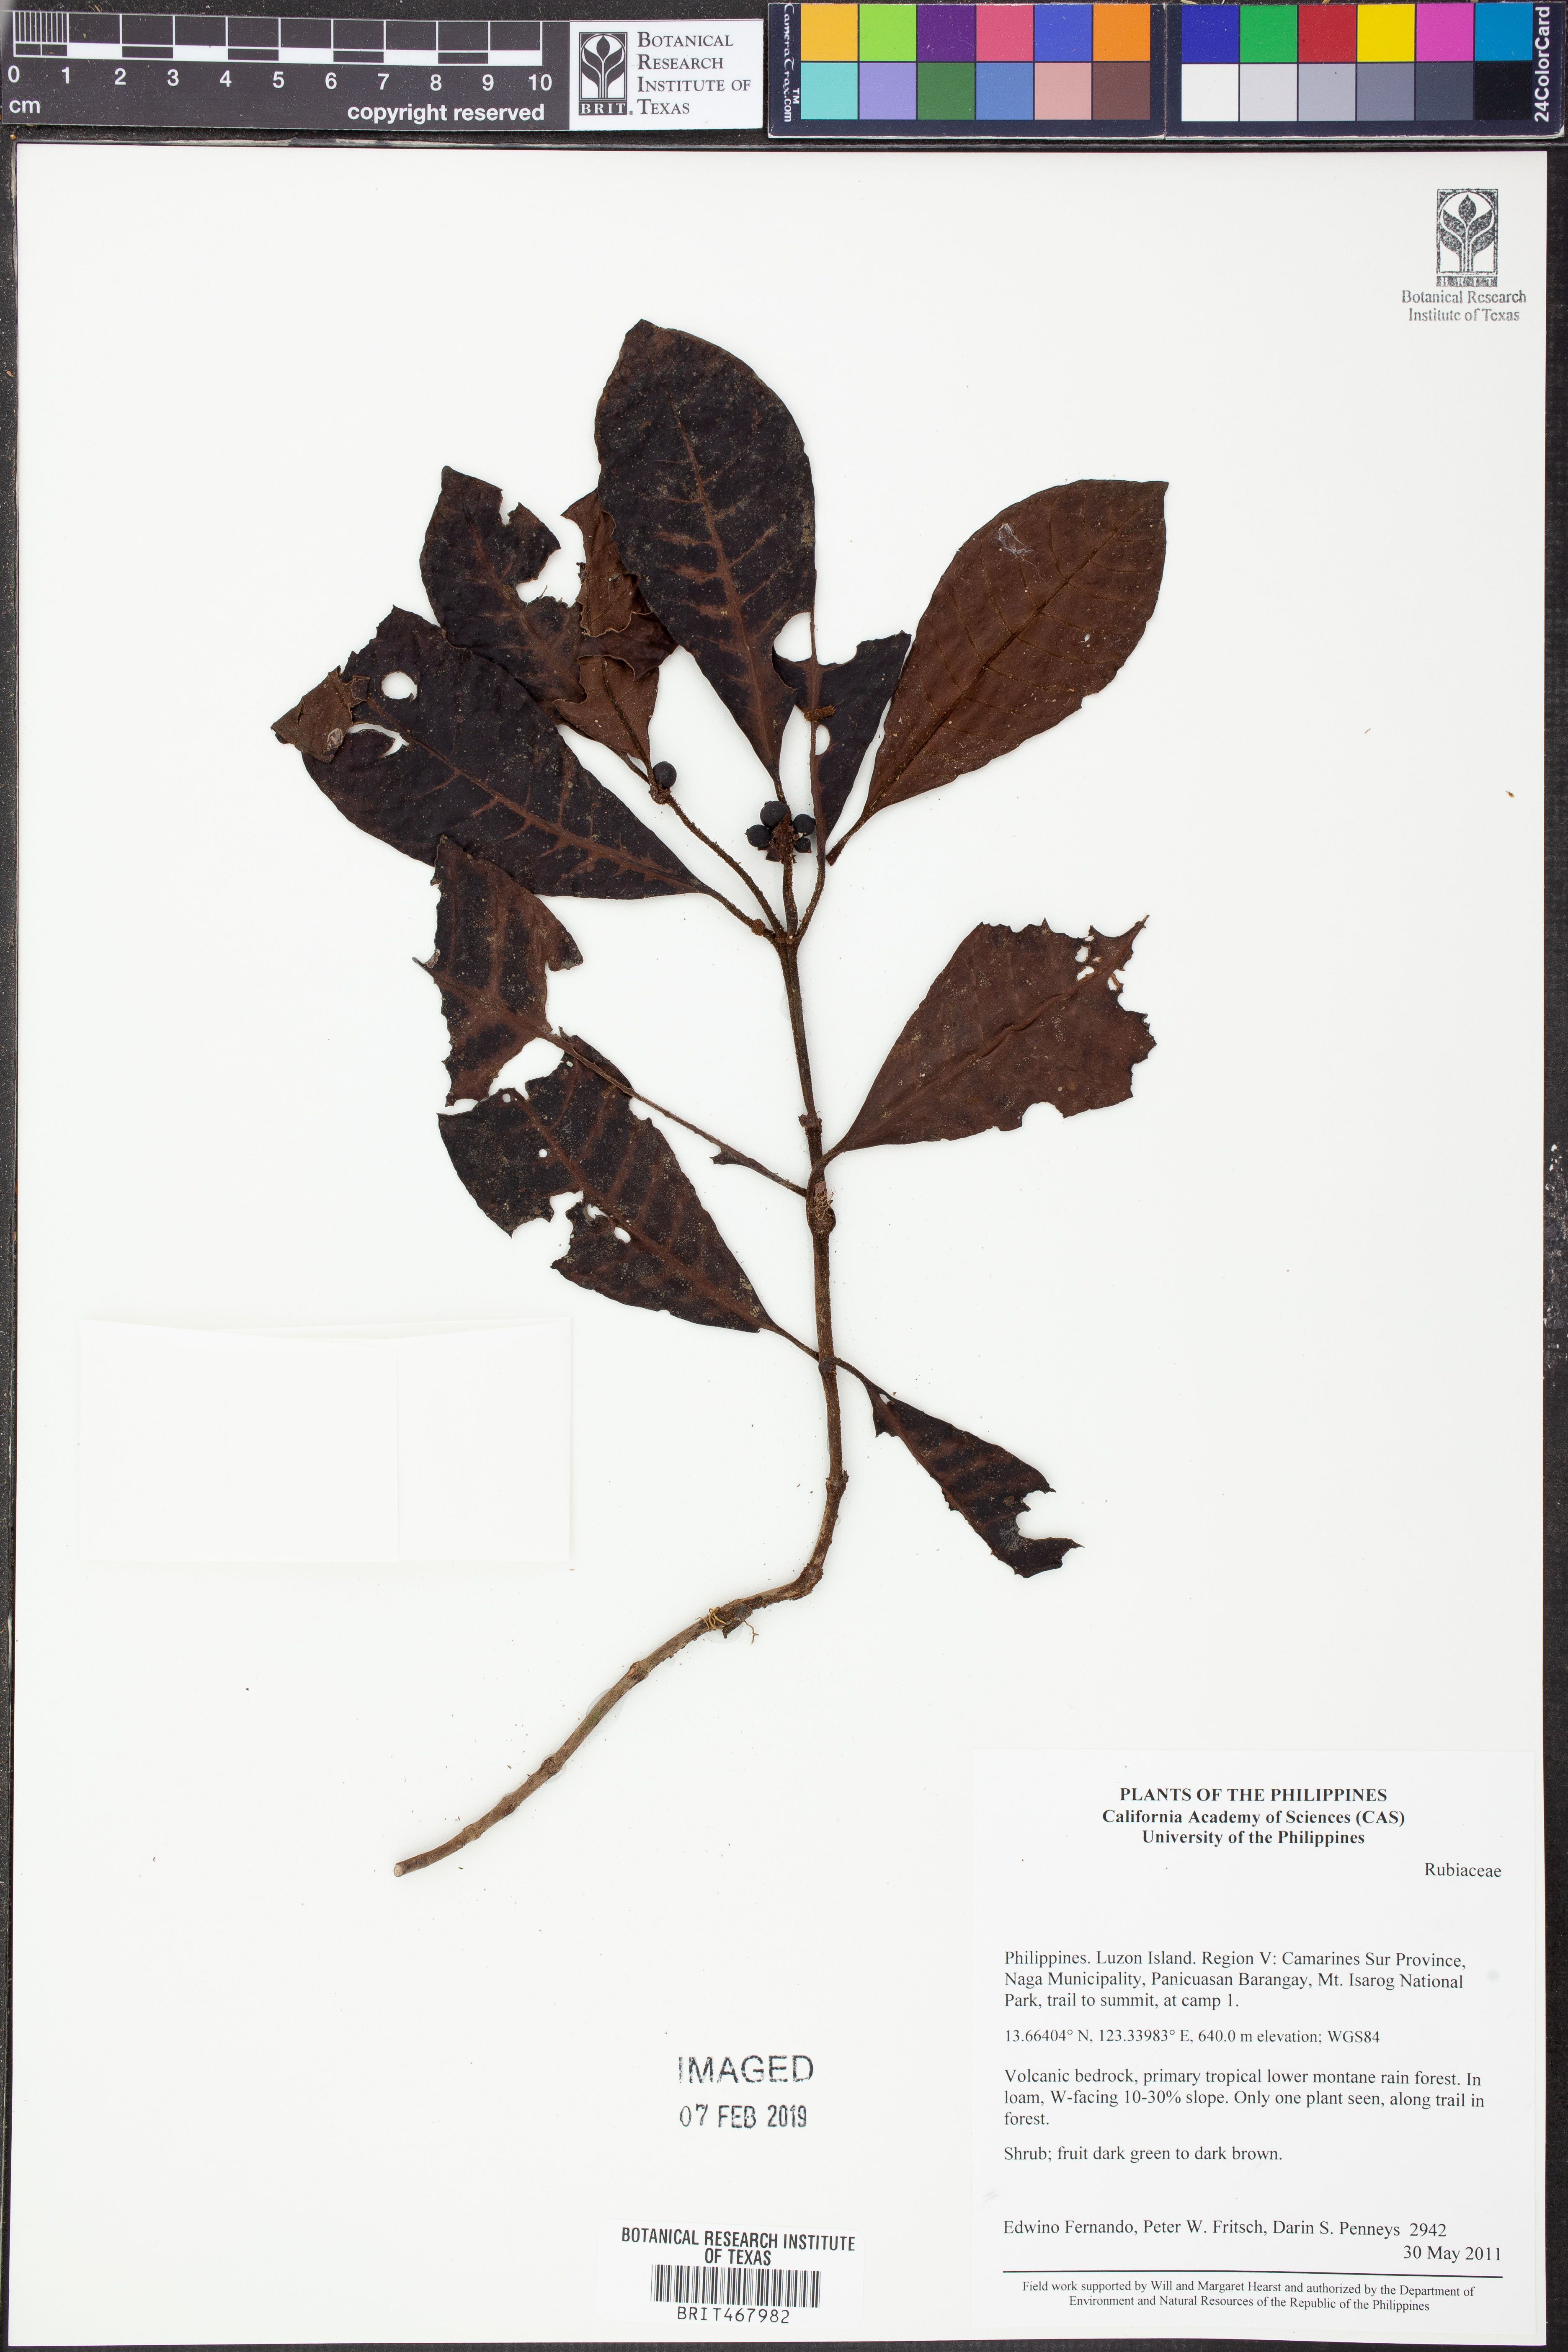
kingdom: Plantae
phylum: Tracheophyta
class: Magnoliopsida
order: Gentianales
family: Rubiaceae
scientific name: Rubiaceae
